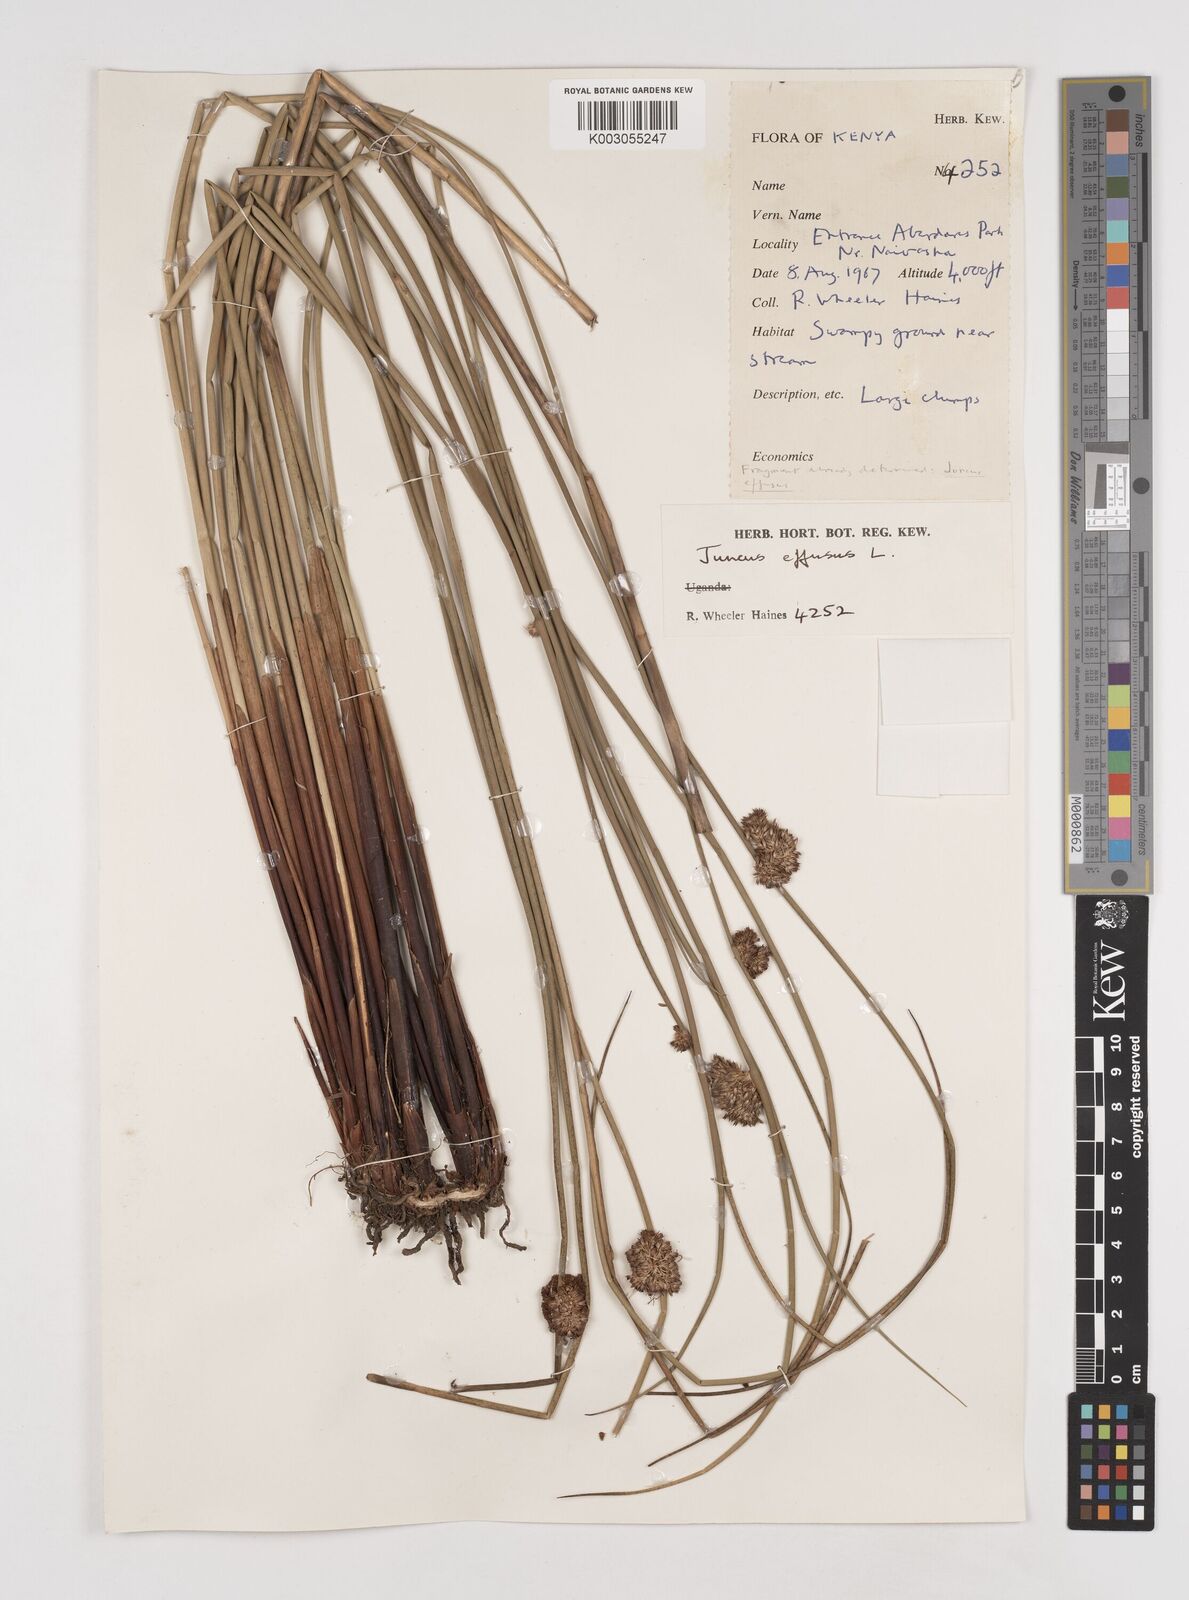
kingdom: Plantae
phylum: Tracheophyta
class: Liliopsida
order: Poales
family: Juncaceae
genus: Juncus
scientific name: Juncus effusus
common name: Soft rush
